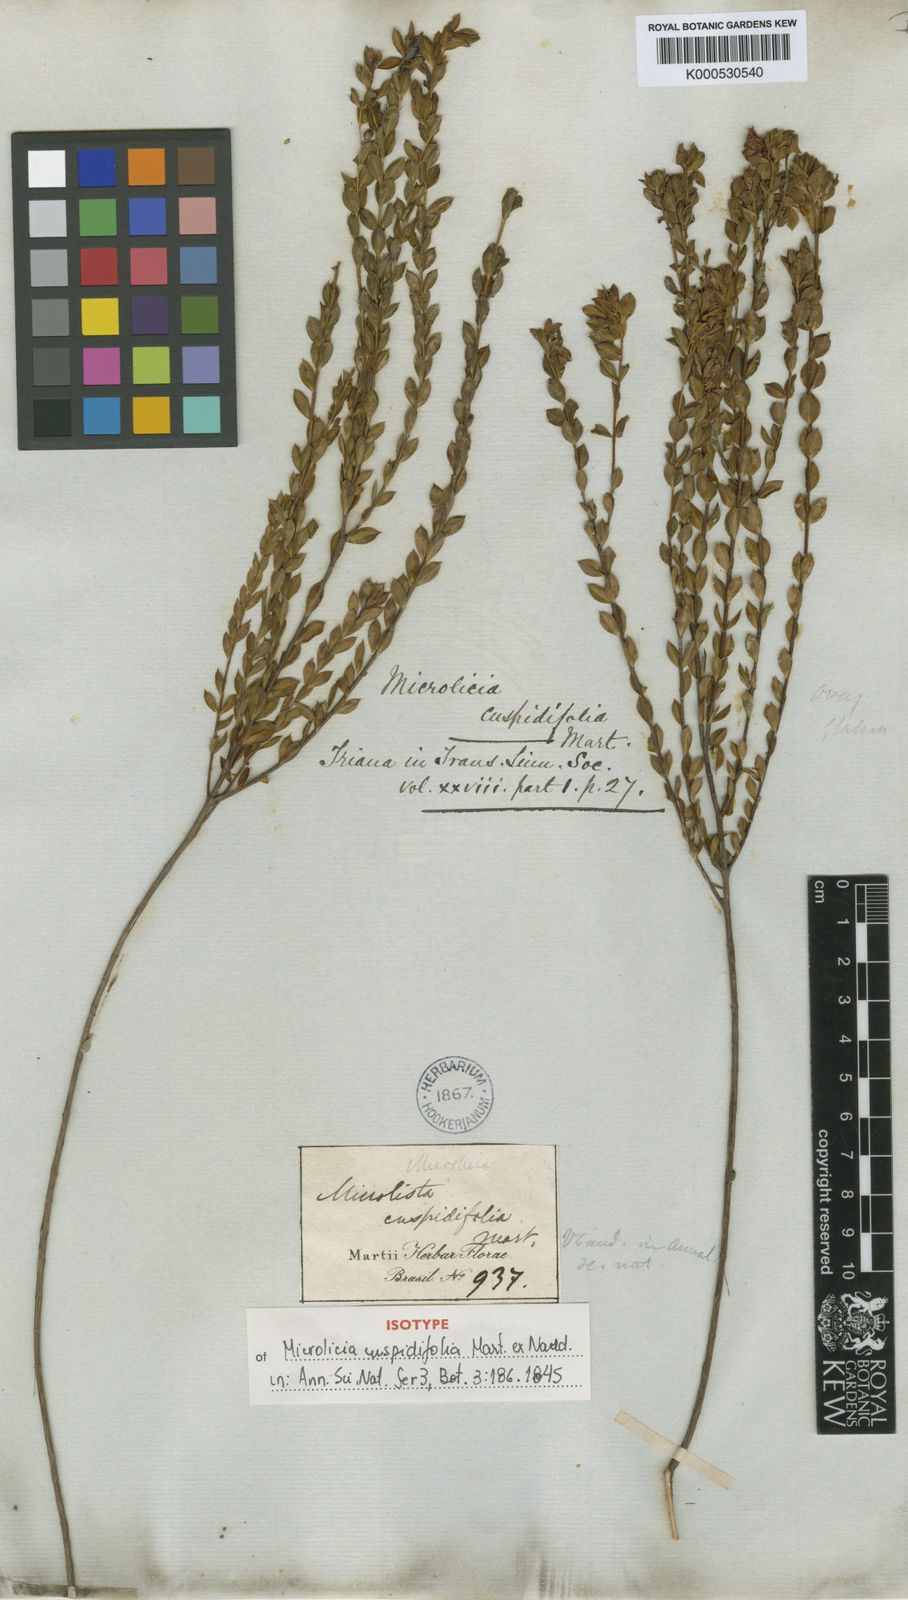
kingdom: Plantae
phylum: Tracheophyta
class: Magnoliopsida
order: Myrtales
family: Melastomataceae
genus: Microlicia
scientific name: Microlicia
